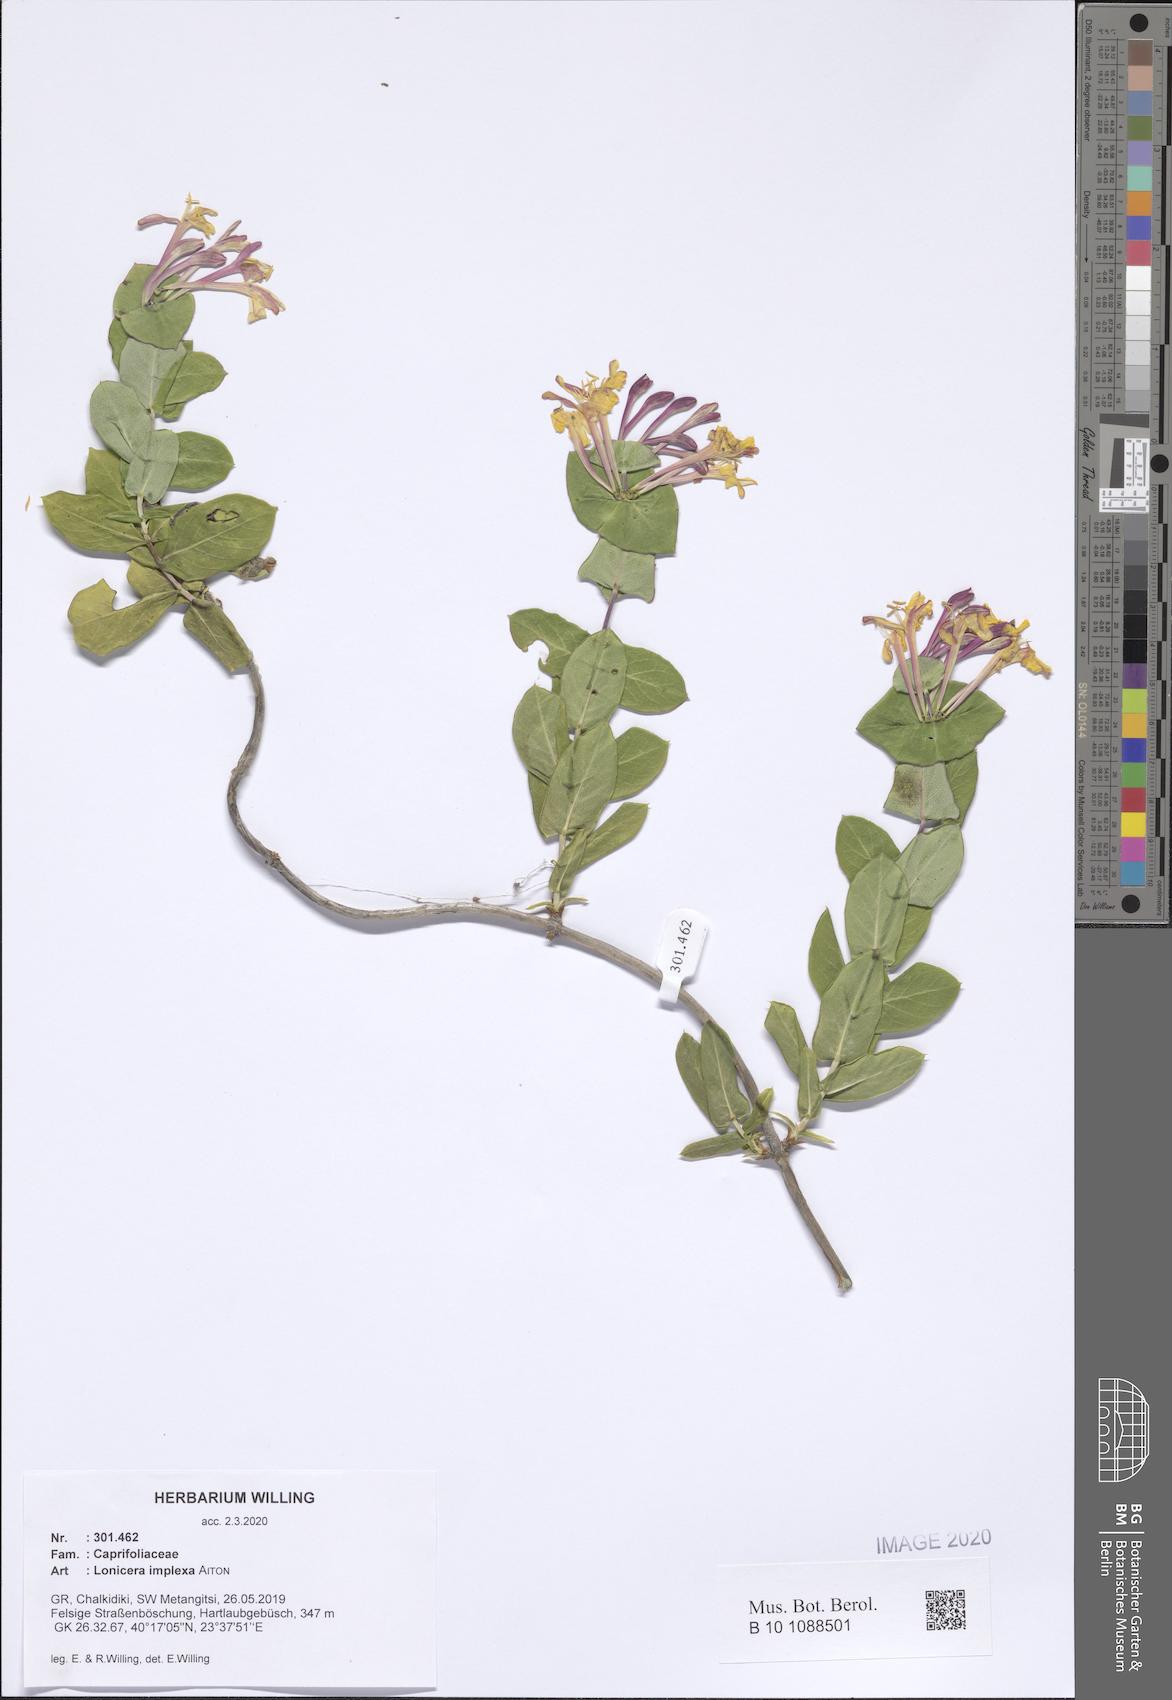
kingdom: Plantae
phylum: Tracheophyta
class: Magnoliopsida
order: Dipsacales
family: Caprifoliaceae
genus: Lonicera
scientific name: Lonicera implexa
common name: Minorca honeysuckle
